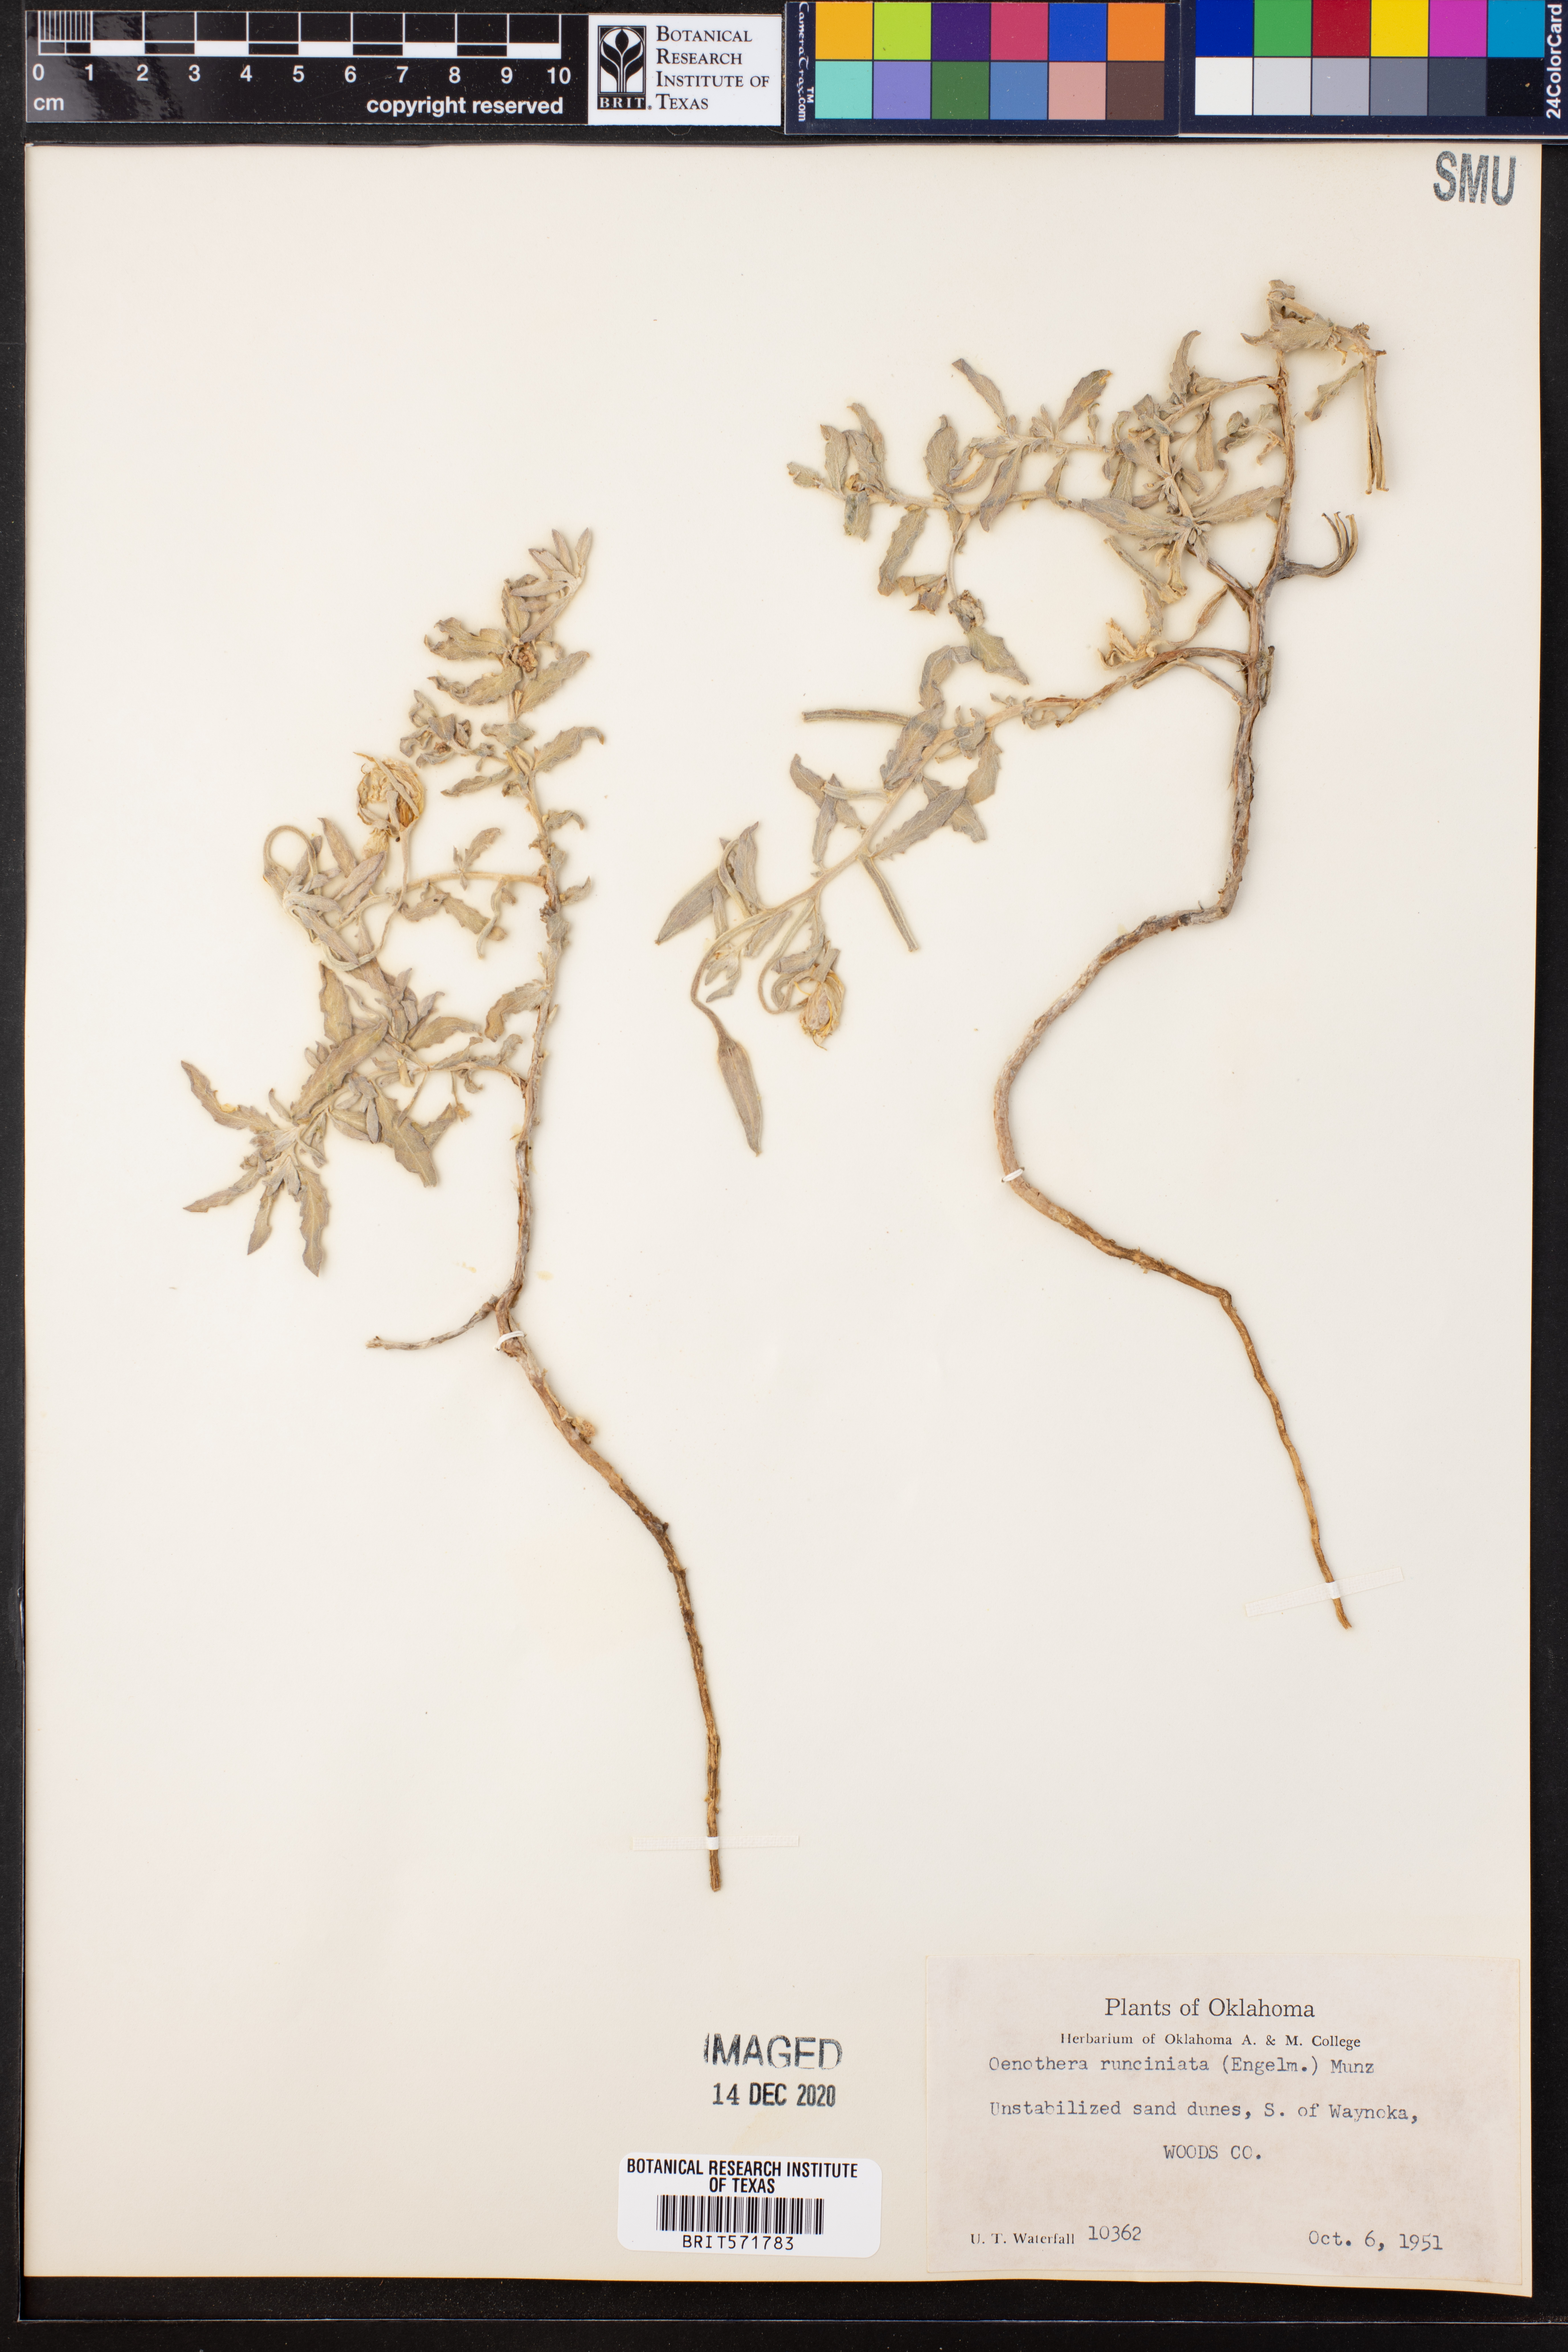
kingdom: Plantae
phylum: Tracheophyta
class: Magnoliopsida
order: Myrtales
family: Onagraceae
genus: Oenothera
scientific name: Oenothera pallida
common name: Pale evening-primrose
